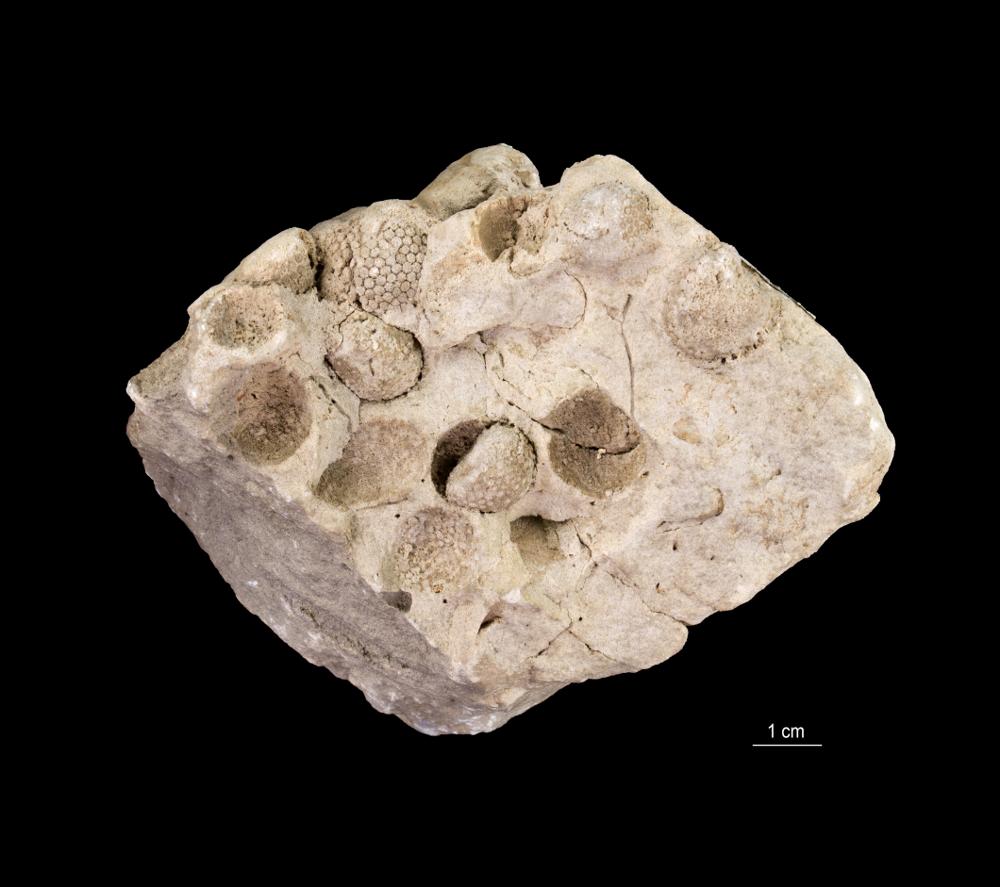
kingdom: Animalia
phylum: Echinodermata
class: Crinoidea
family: Cyclocrinidae
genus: Cyclocrinus
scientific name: Cyclocrinus
